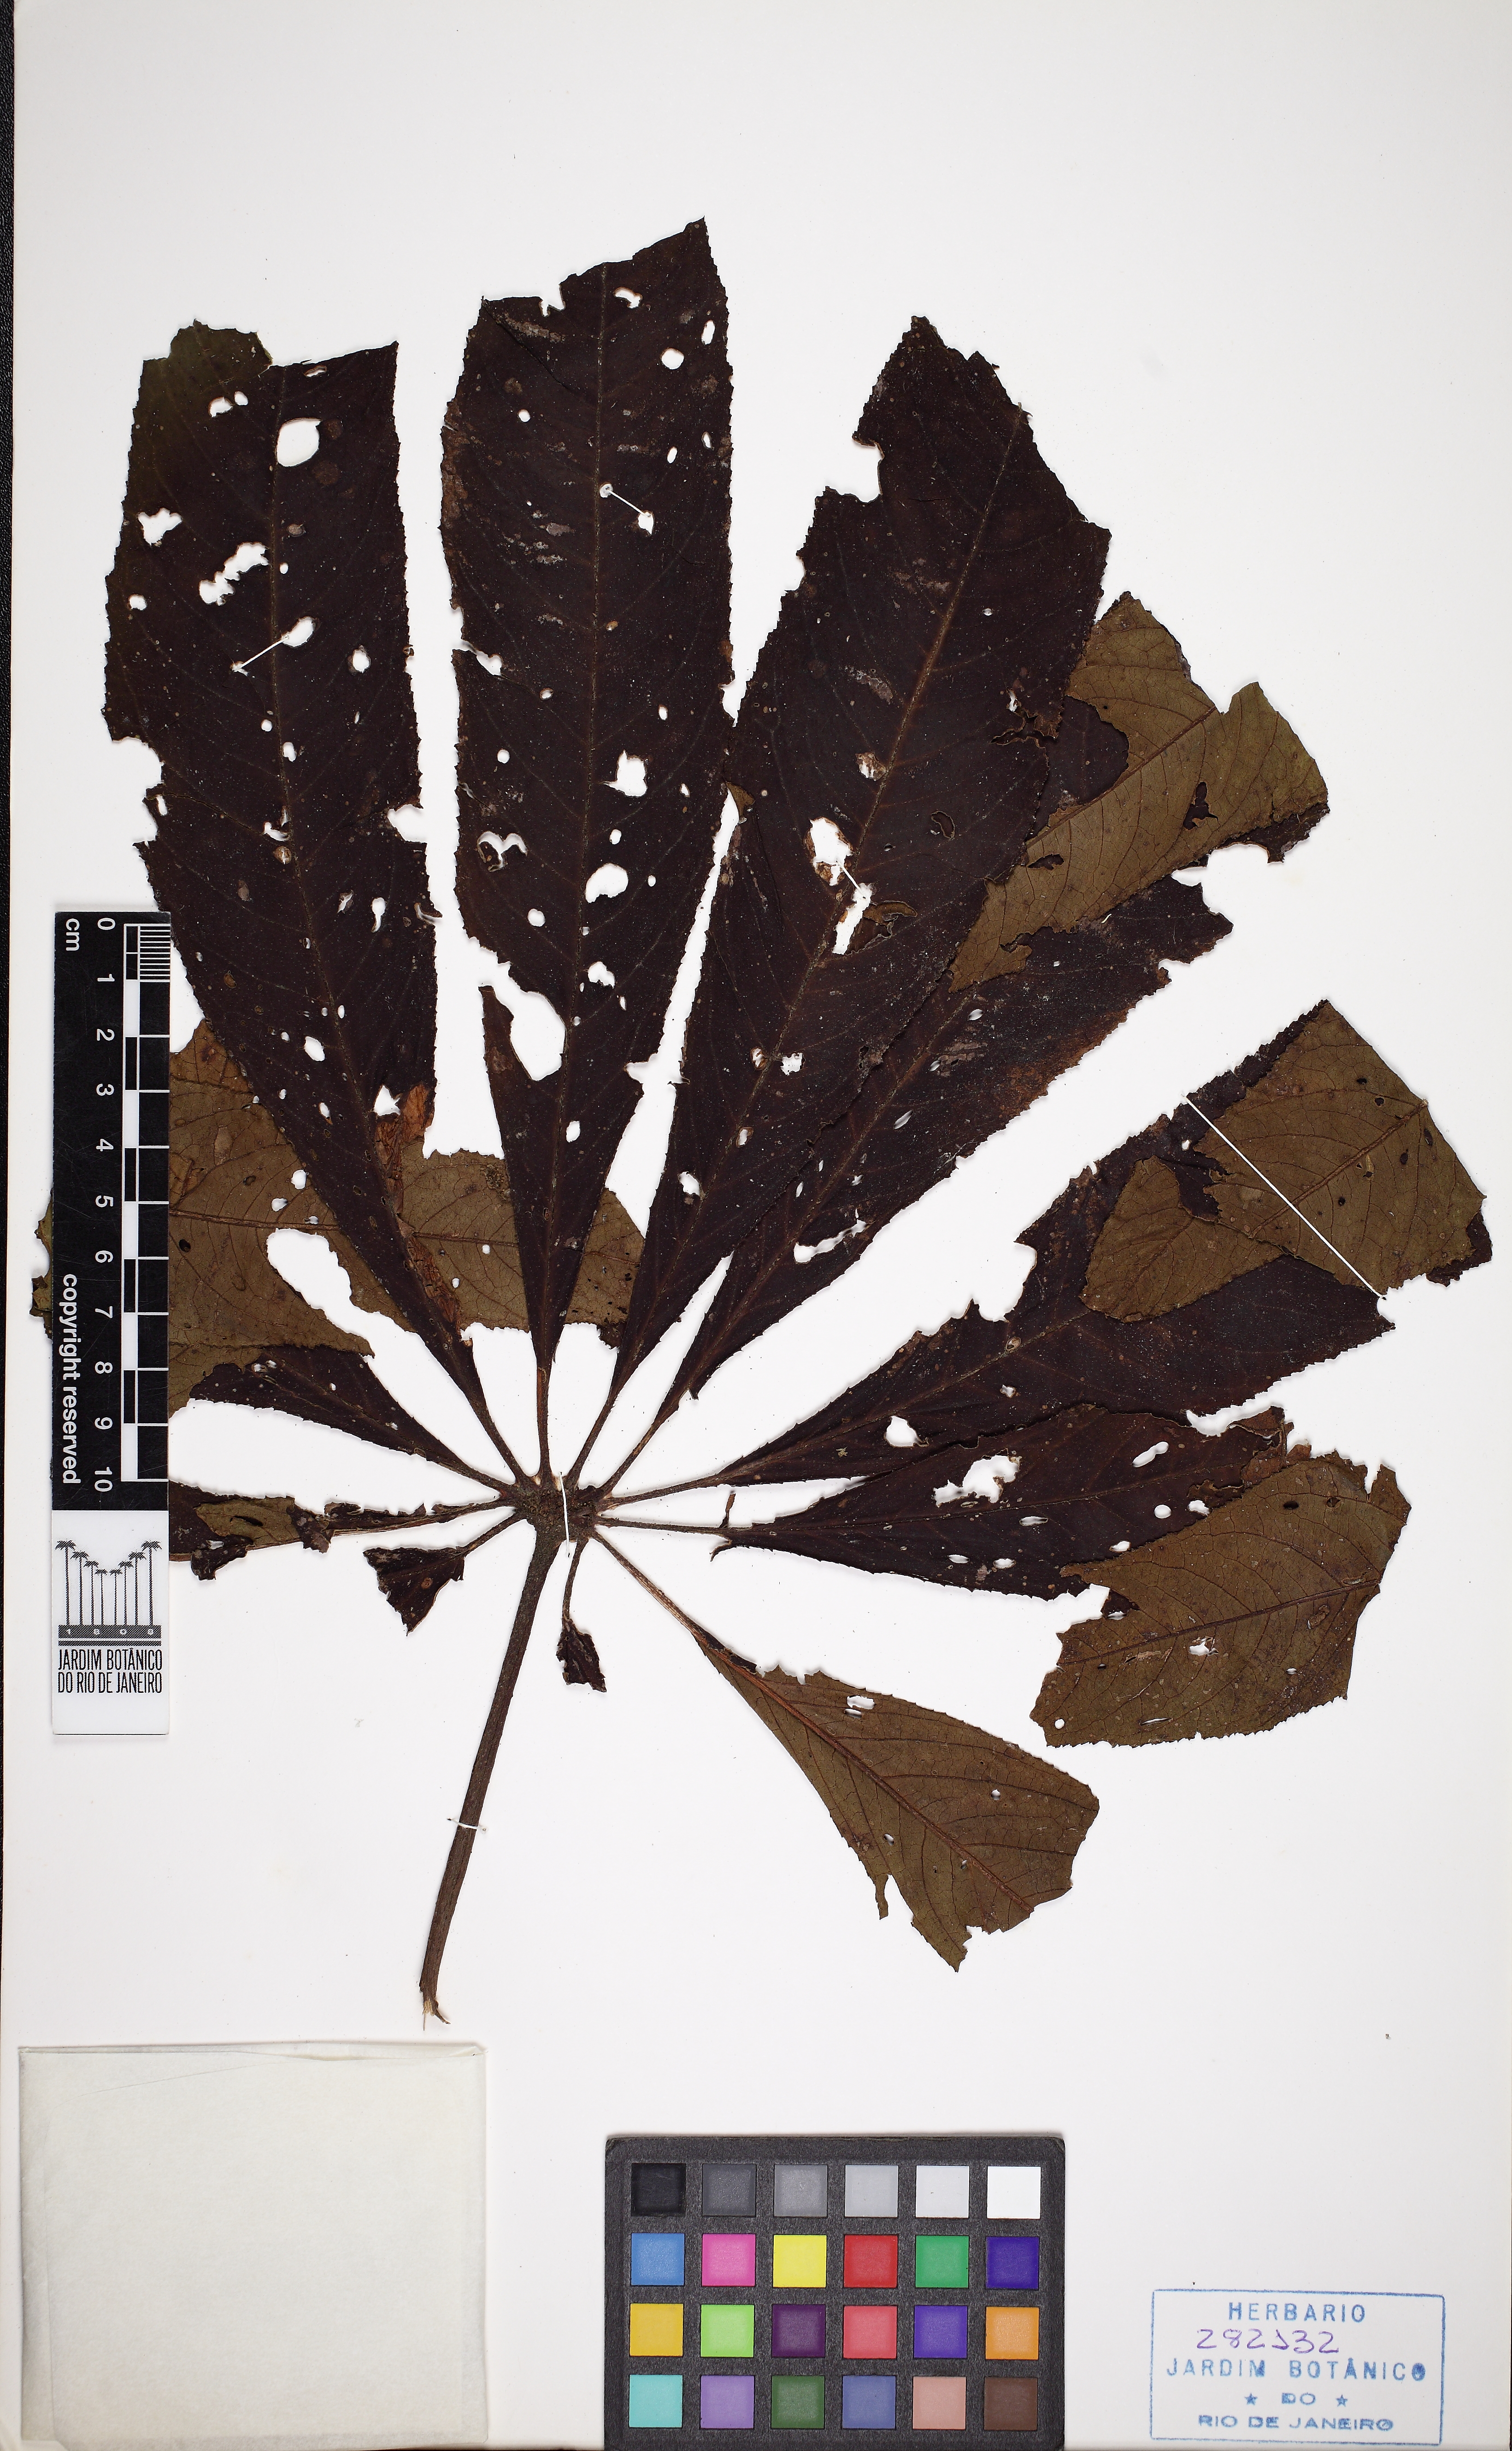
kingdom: Plantae
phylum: Tracheophyta
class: Magnoliopsida
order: Cucurbitales
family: Begoniaceae
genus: Begonia
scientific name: Begonia digitata
